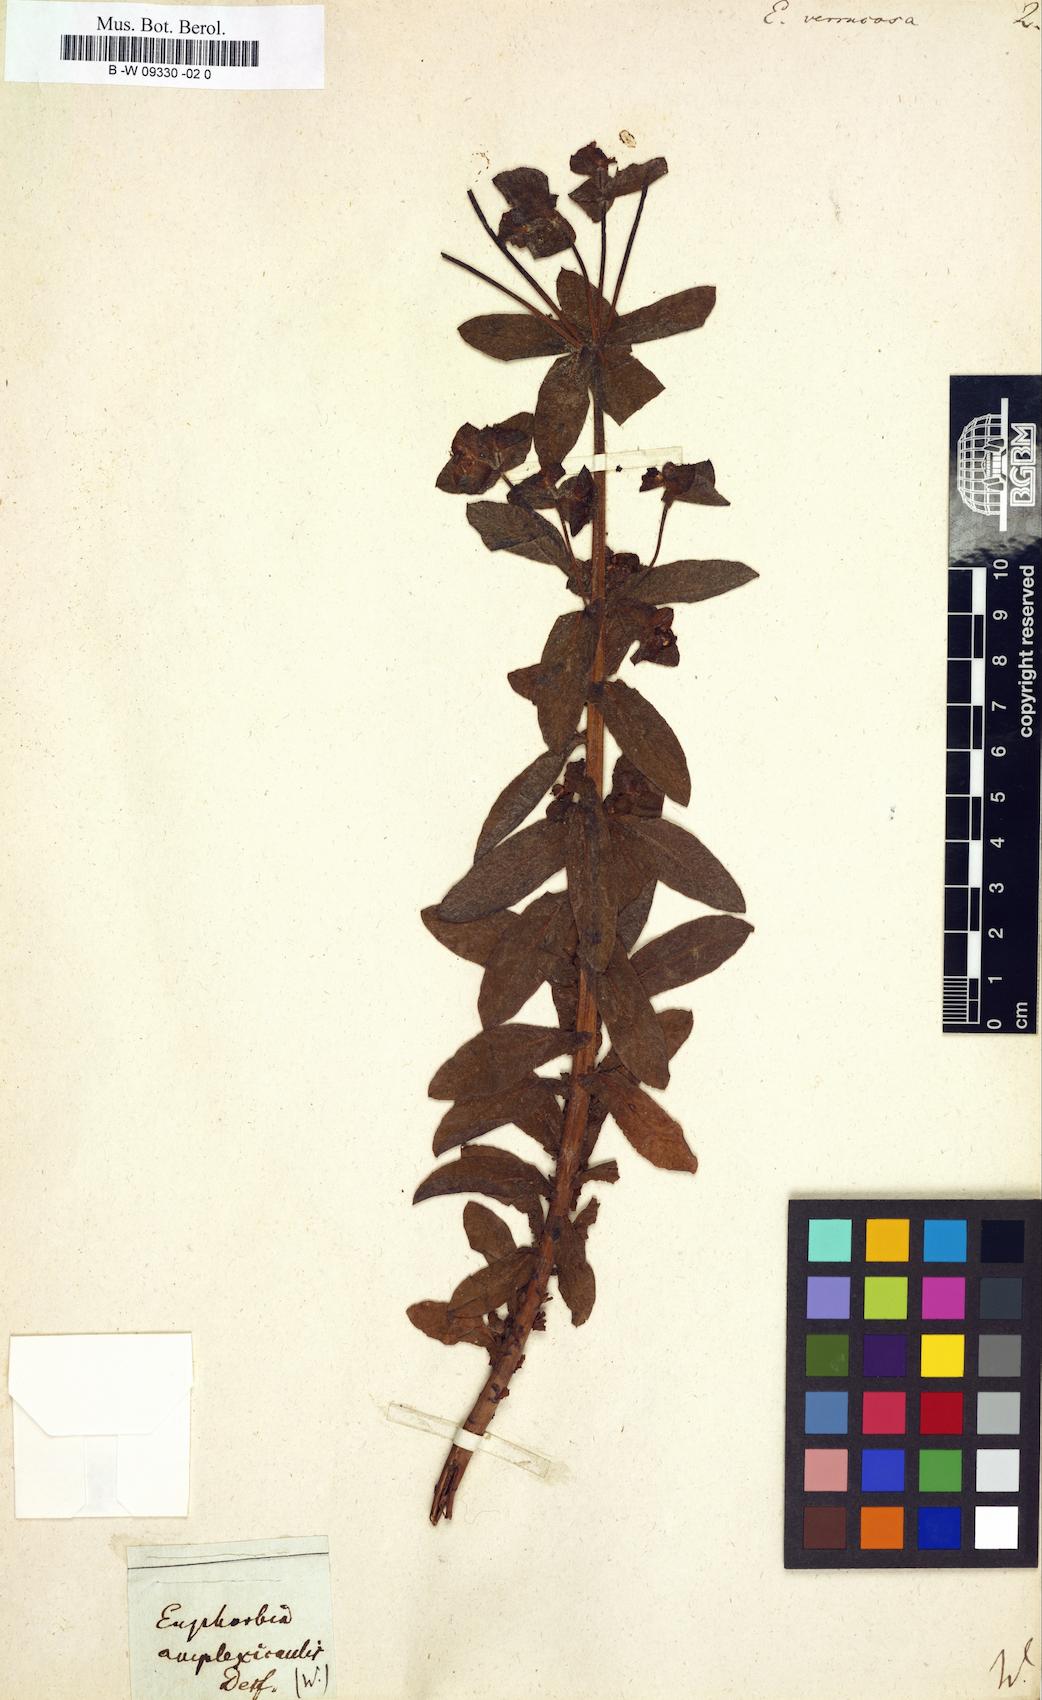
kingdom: Plantae
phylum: Tracheophyta
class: Magnoliopsida
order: Malpighiales
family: Euphorbiaceae
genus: Euphorbia
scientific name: Euphorbia verrucosa
